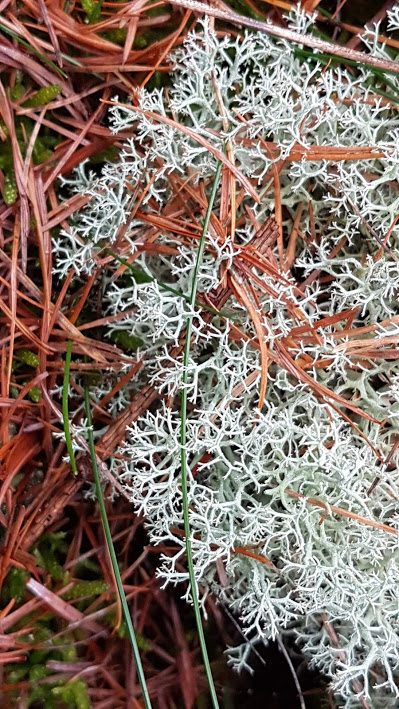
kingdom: Fungi
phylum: Ascomycota
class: Lecanoromycetes
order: Lecanorales
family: Cladoniaceae
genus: Cladonia
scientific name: Cladonia portentosa
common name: hede-rensdyrlav
